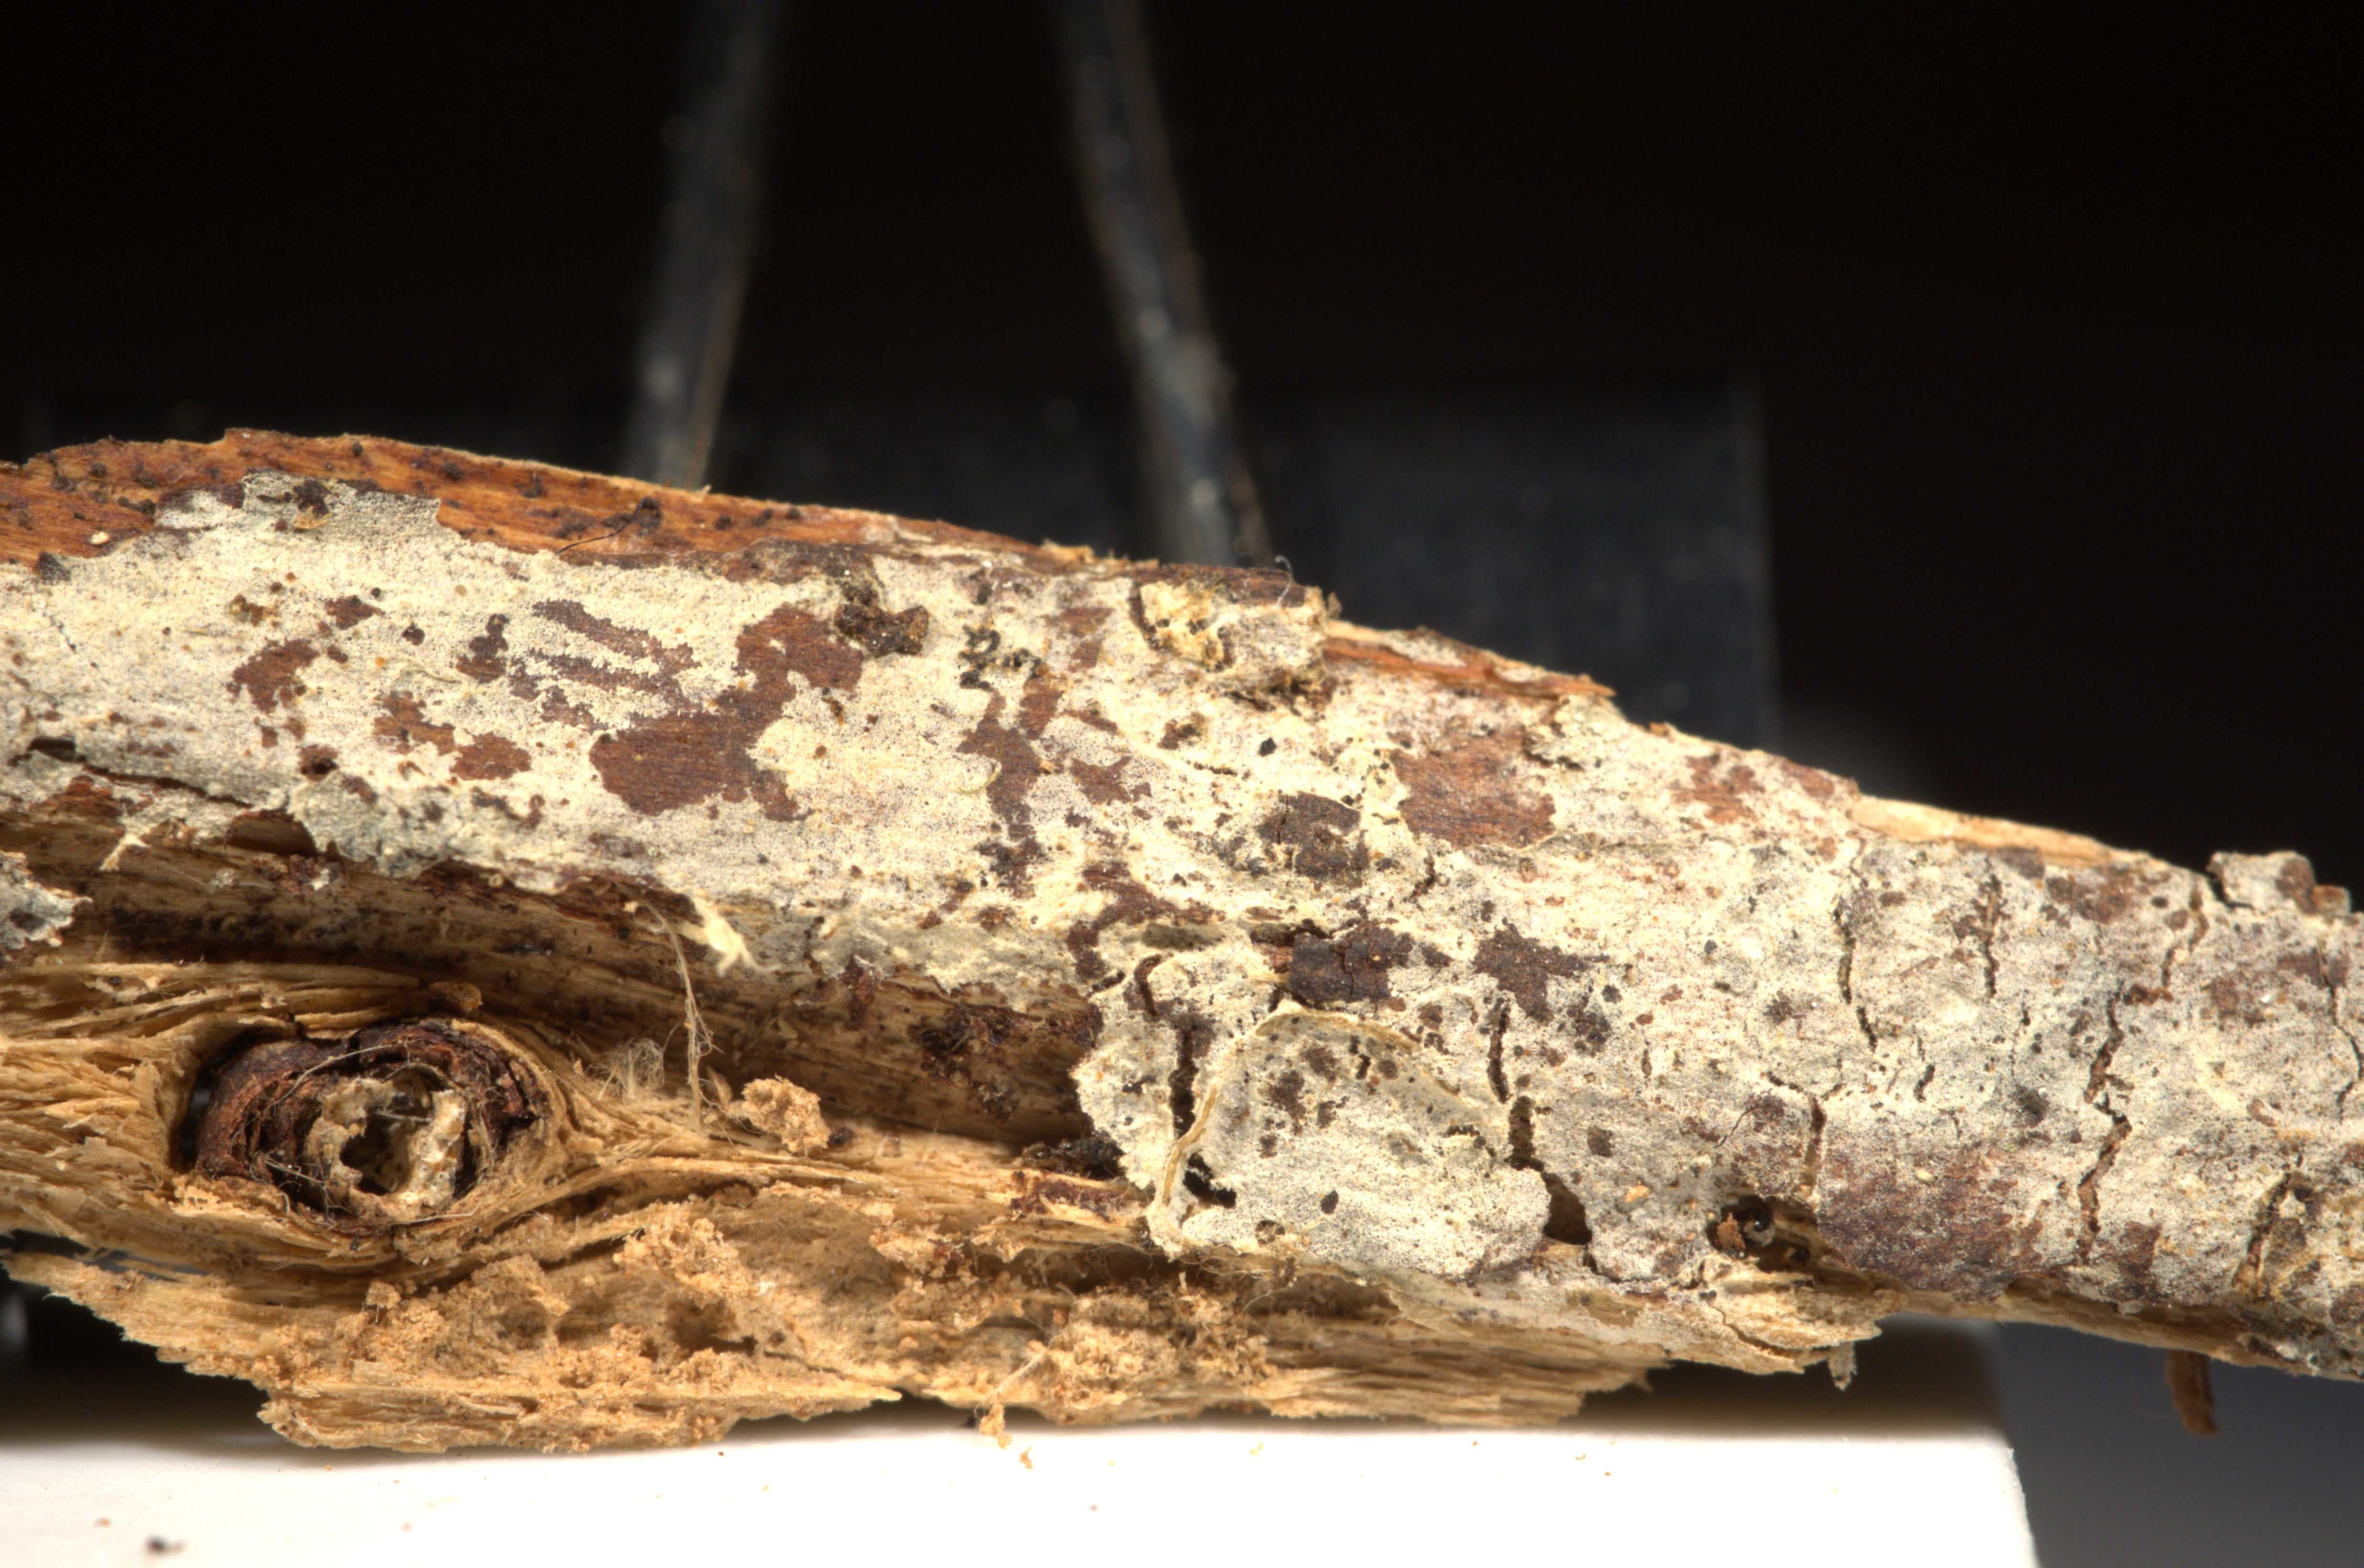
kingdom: Fungi
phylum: Basidiomycota
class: Agaricomycetes
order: Polyporales
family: Hyphodermataceae
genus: Kneiffia
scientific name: Kneiffia subalutacea
